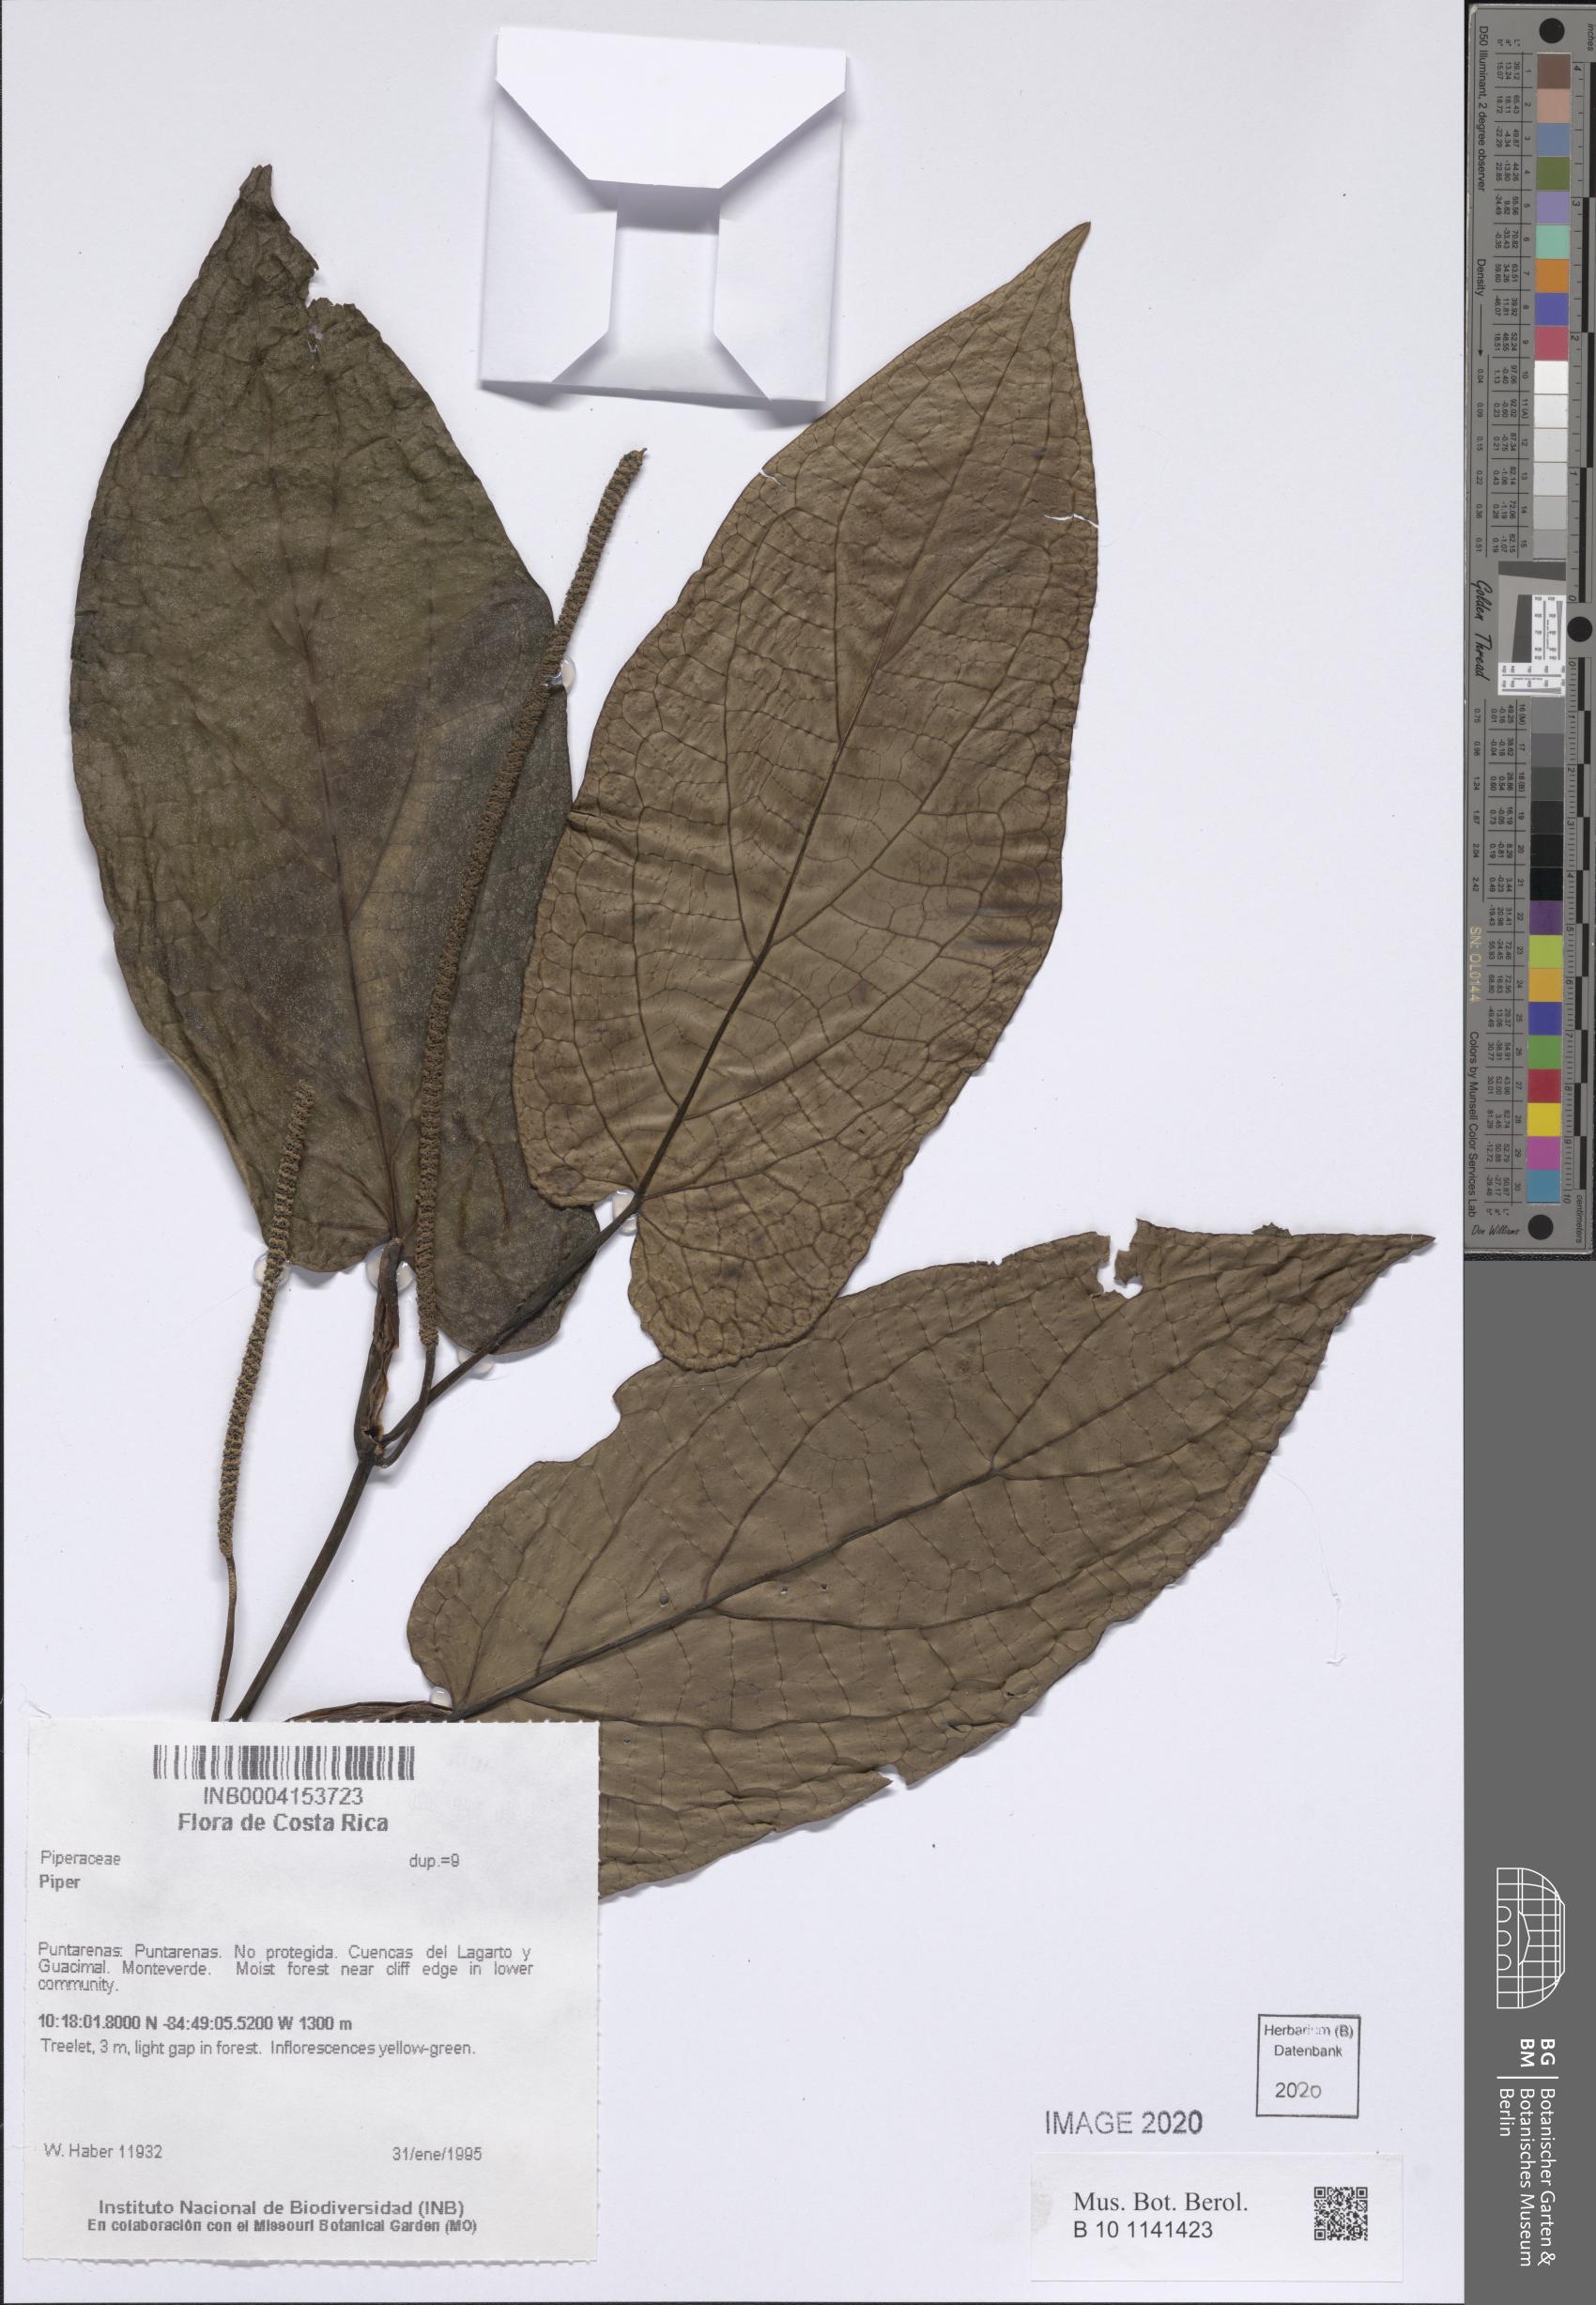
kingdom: Plantae
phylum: Tracheophyta
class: Magnoliopsida
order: Piperales
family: Piperaceae
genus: Piper
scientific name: Piper
